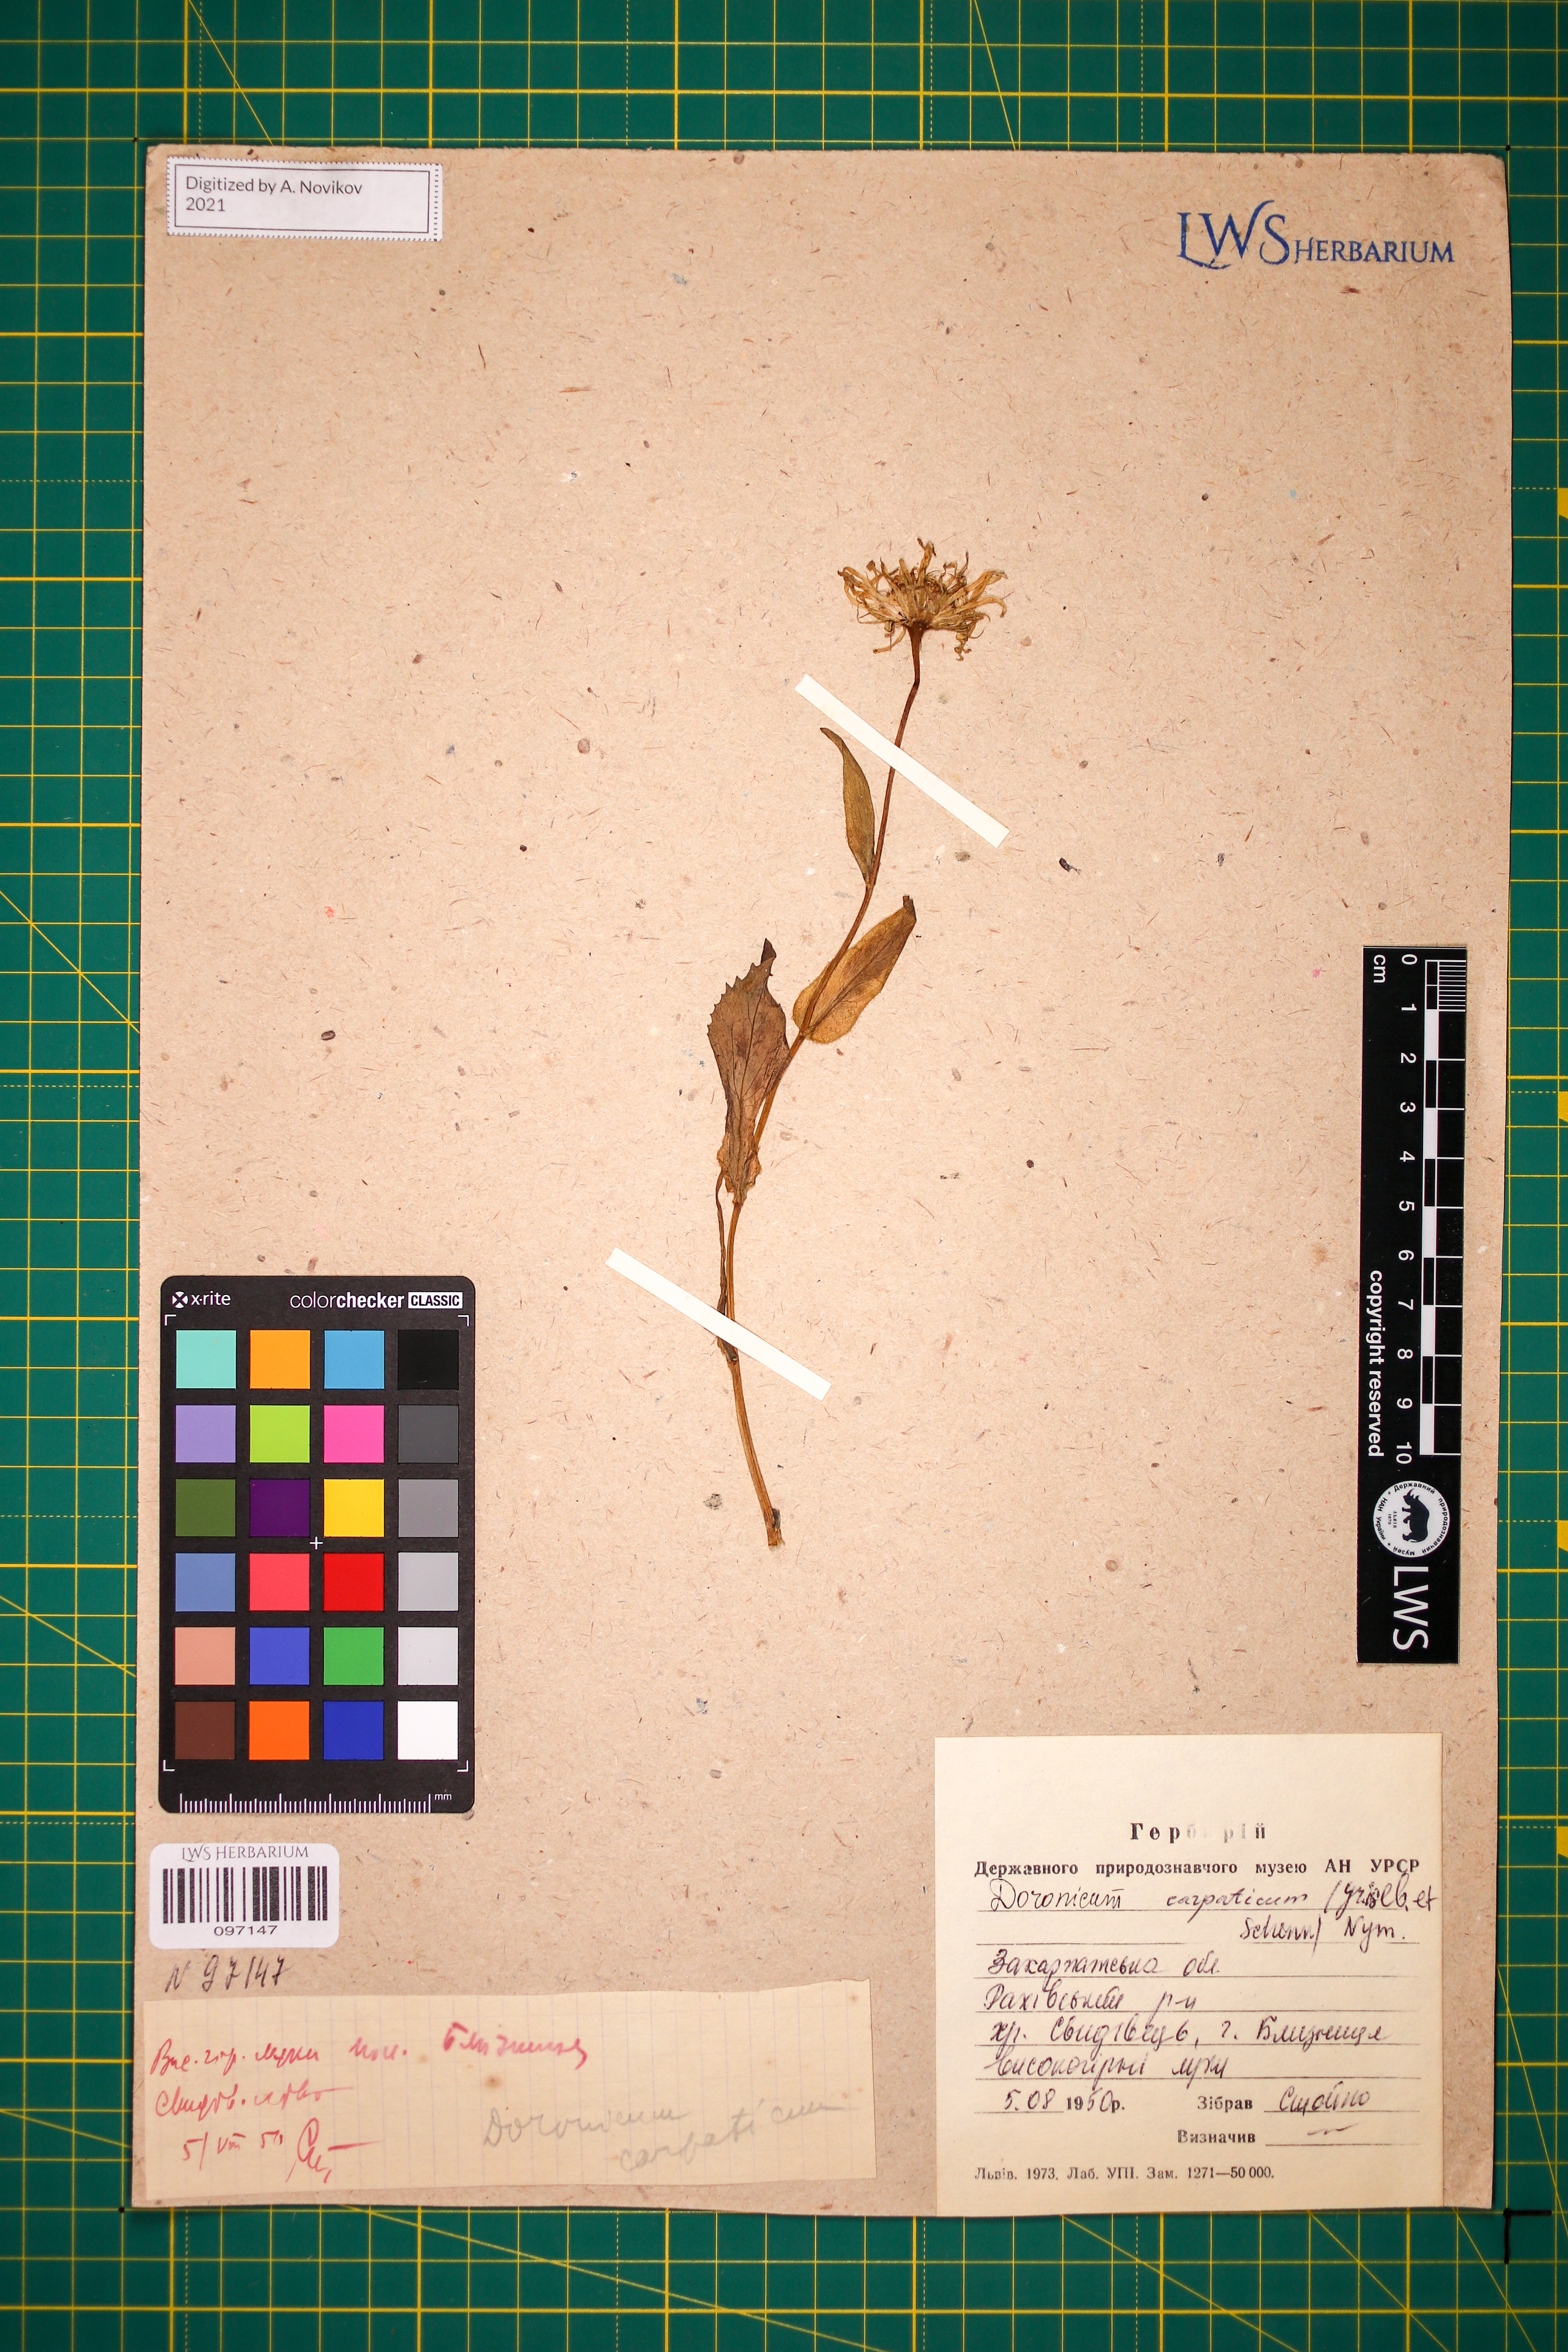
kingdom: Plantae
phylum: Tracheophyta
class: Magnoliopsida
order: Asterales
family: Asteraceae
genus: Doronicum
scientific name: Doronicum carpaticum
